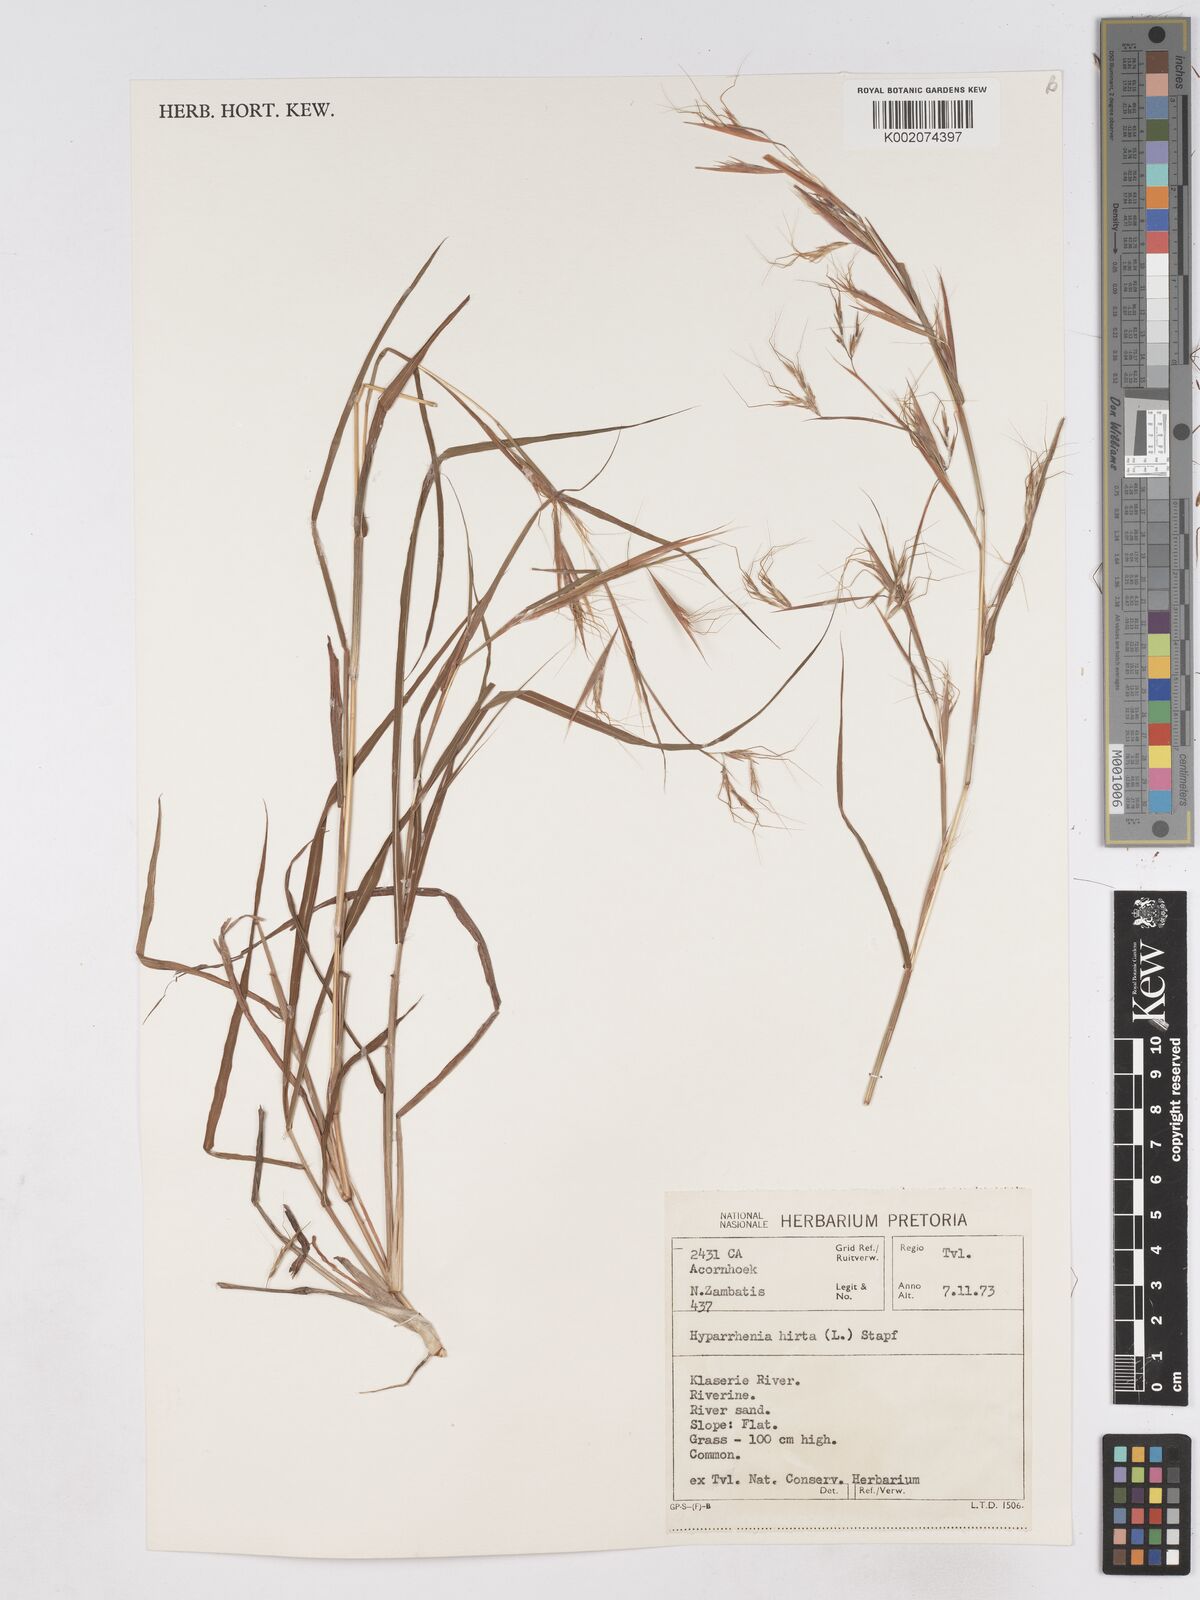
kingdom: Plantae
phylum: Tracheophyta
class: Liliopsida
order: Poales
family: Poaceae
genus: Hyparrhenia
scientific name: Hyparrhenia hirta
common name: Thatching grass
